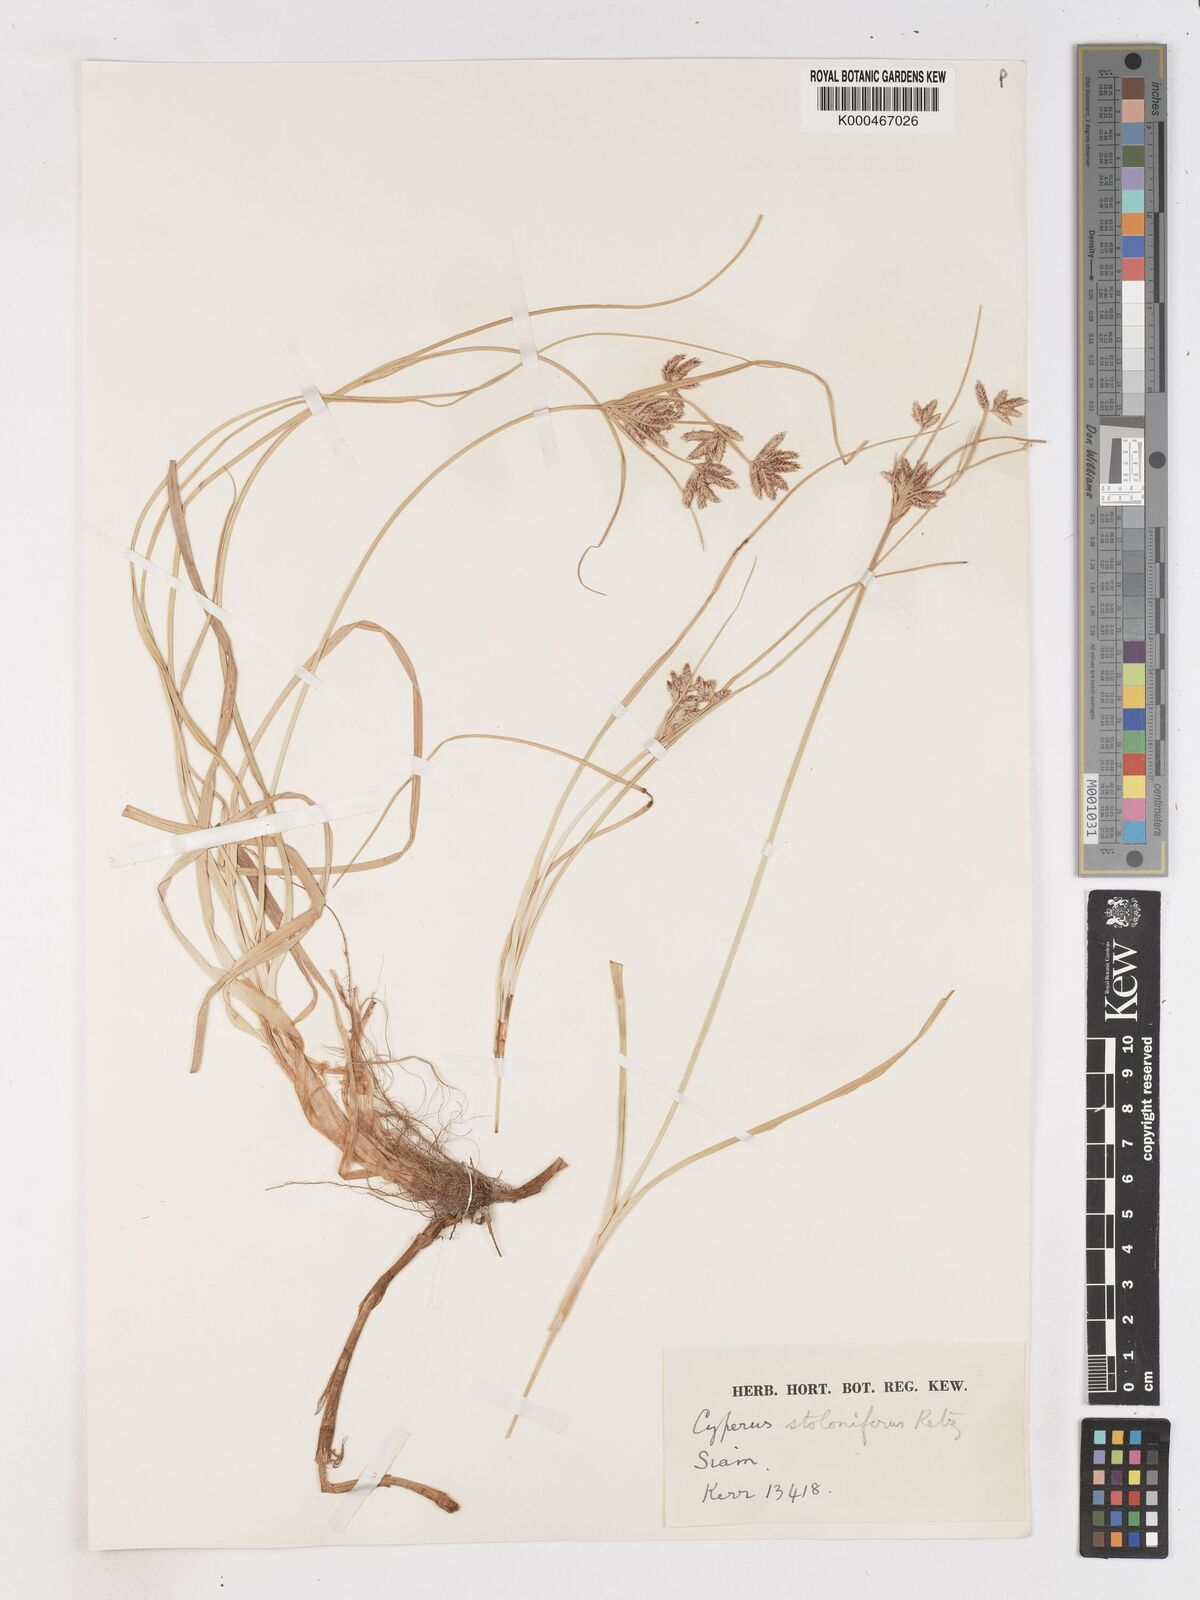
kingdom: Plantae
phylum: Tracheophyta
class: Liliopsida
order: Poales
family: Cyperaceae
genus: Cyperus
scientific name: Cyperus
